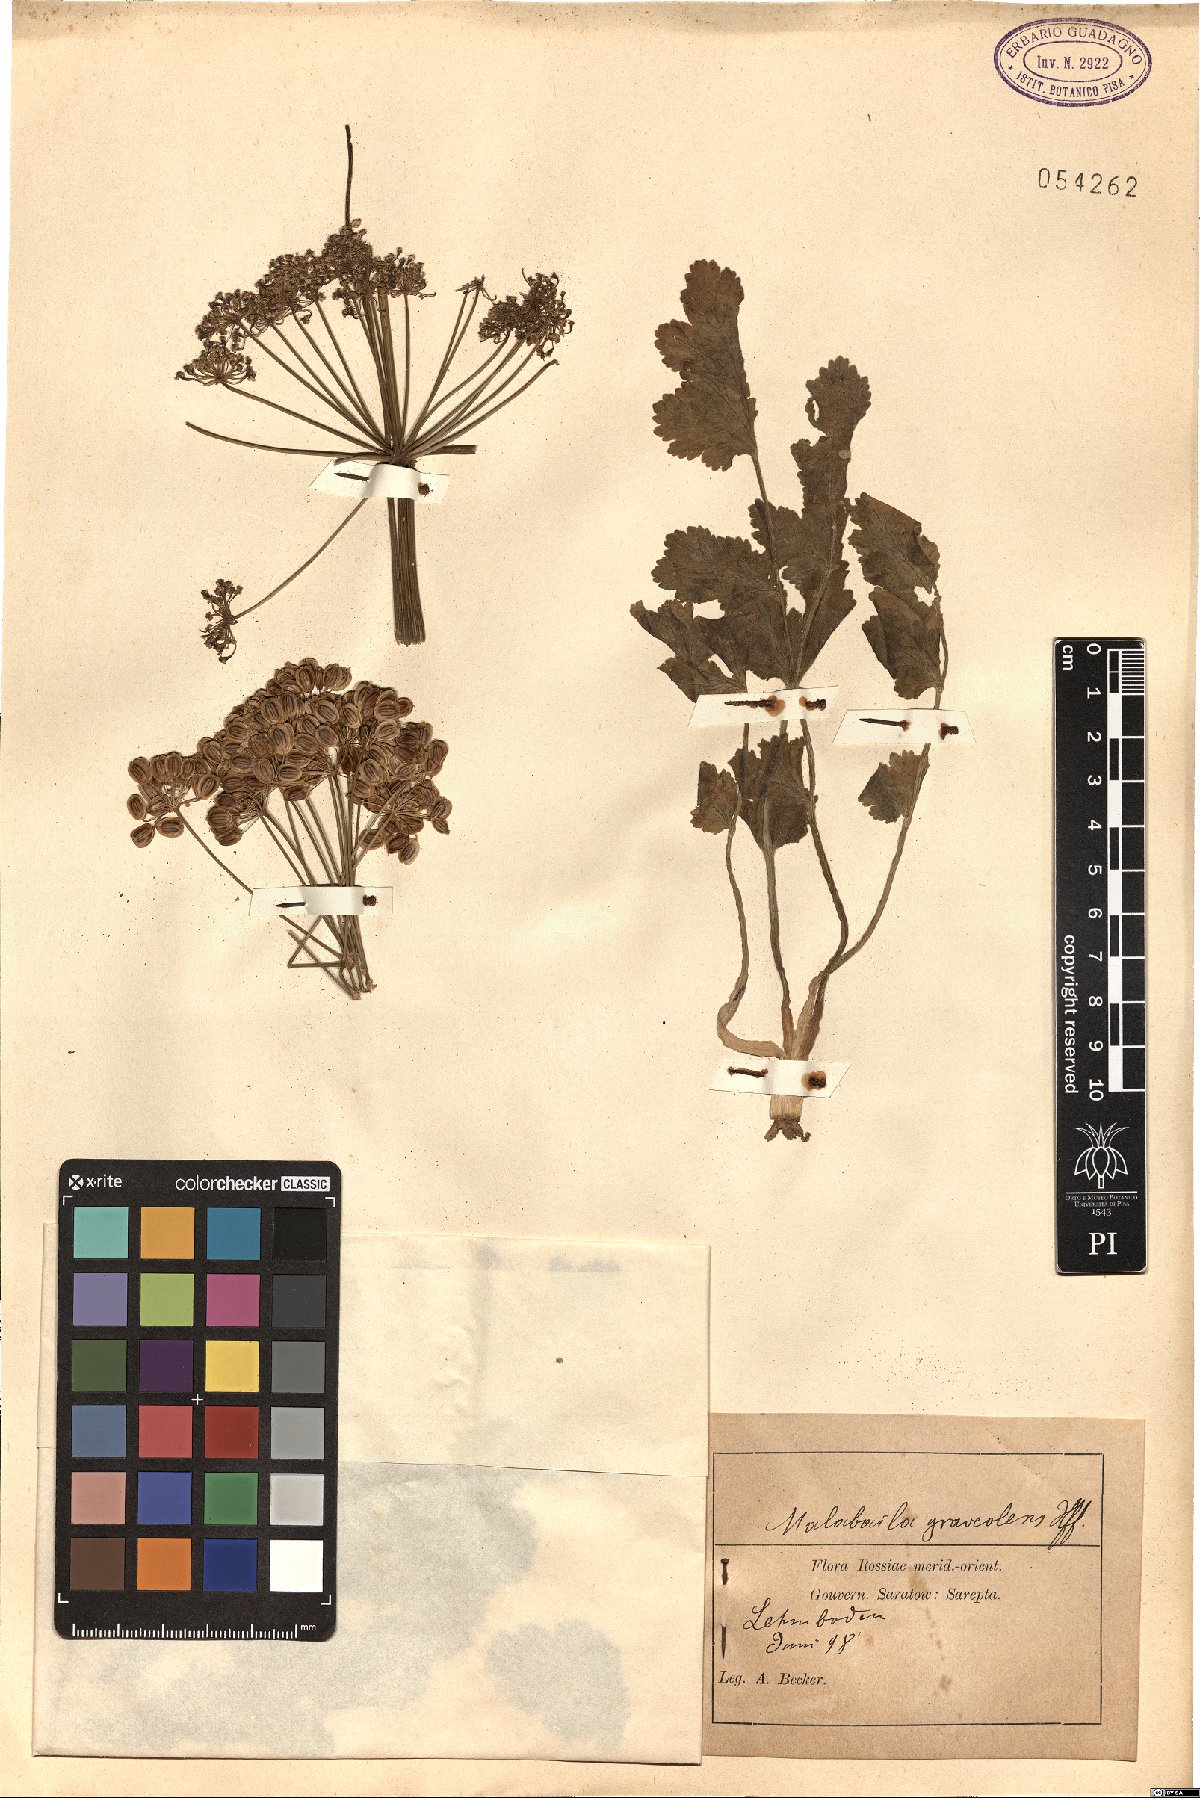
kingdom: Plantae
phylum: Tracheophyta
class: Magnoliopsida
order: Apiales
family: Apiaceae
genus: Pastinaca
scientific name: Pastinaca clausii
